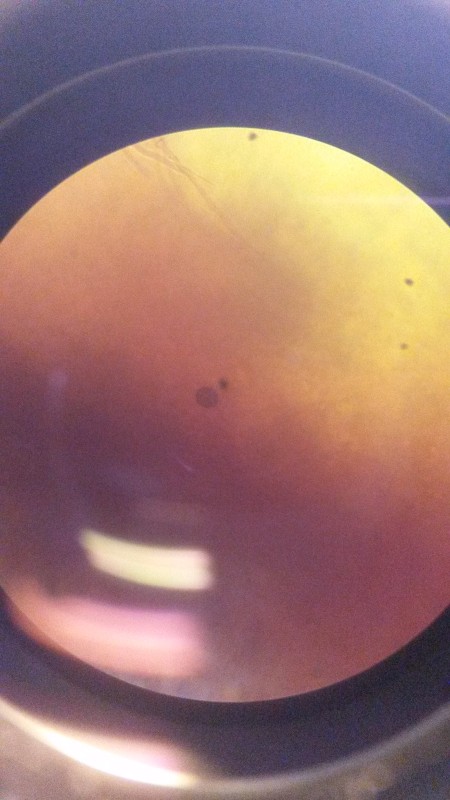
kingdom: Fungi
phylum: Basidiomycota
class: Agaricomycetes
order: Russulales
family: Bondarzewiaceae
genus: Heterobasidion
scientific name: Heterobasidion annosum
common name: almindelig rodfordærver
